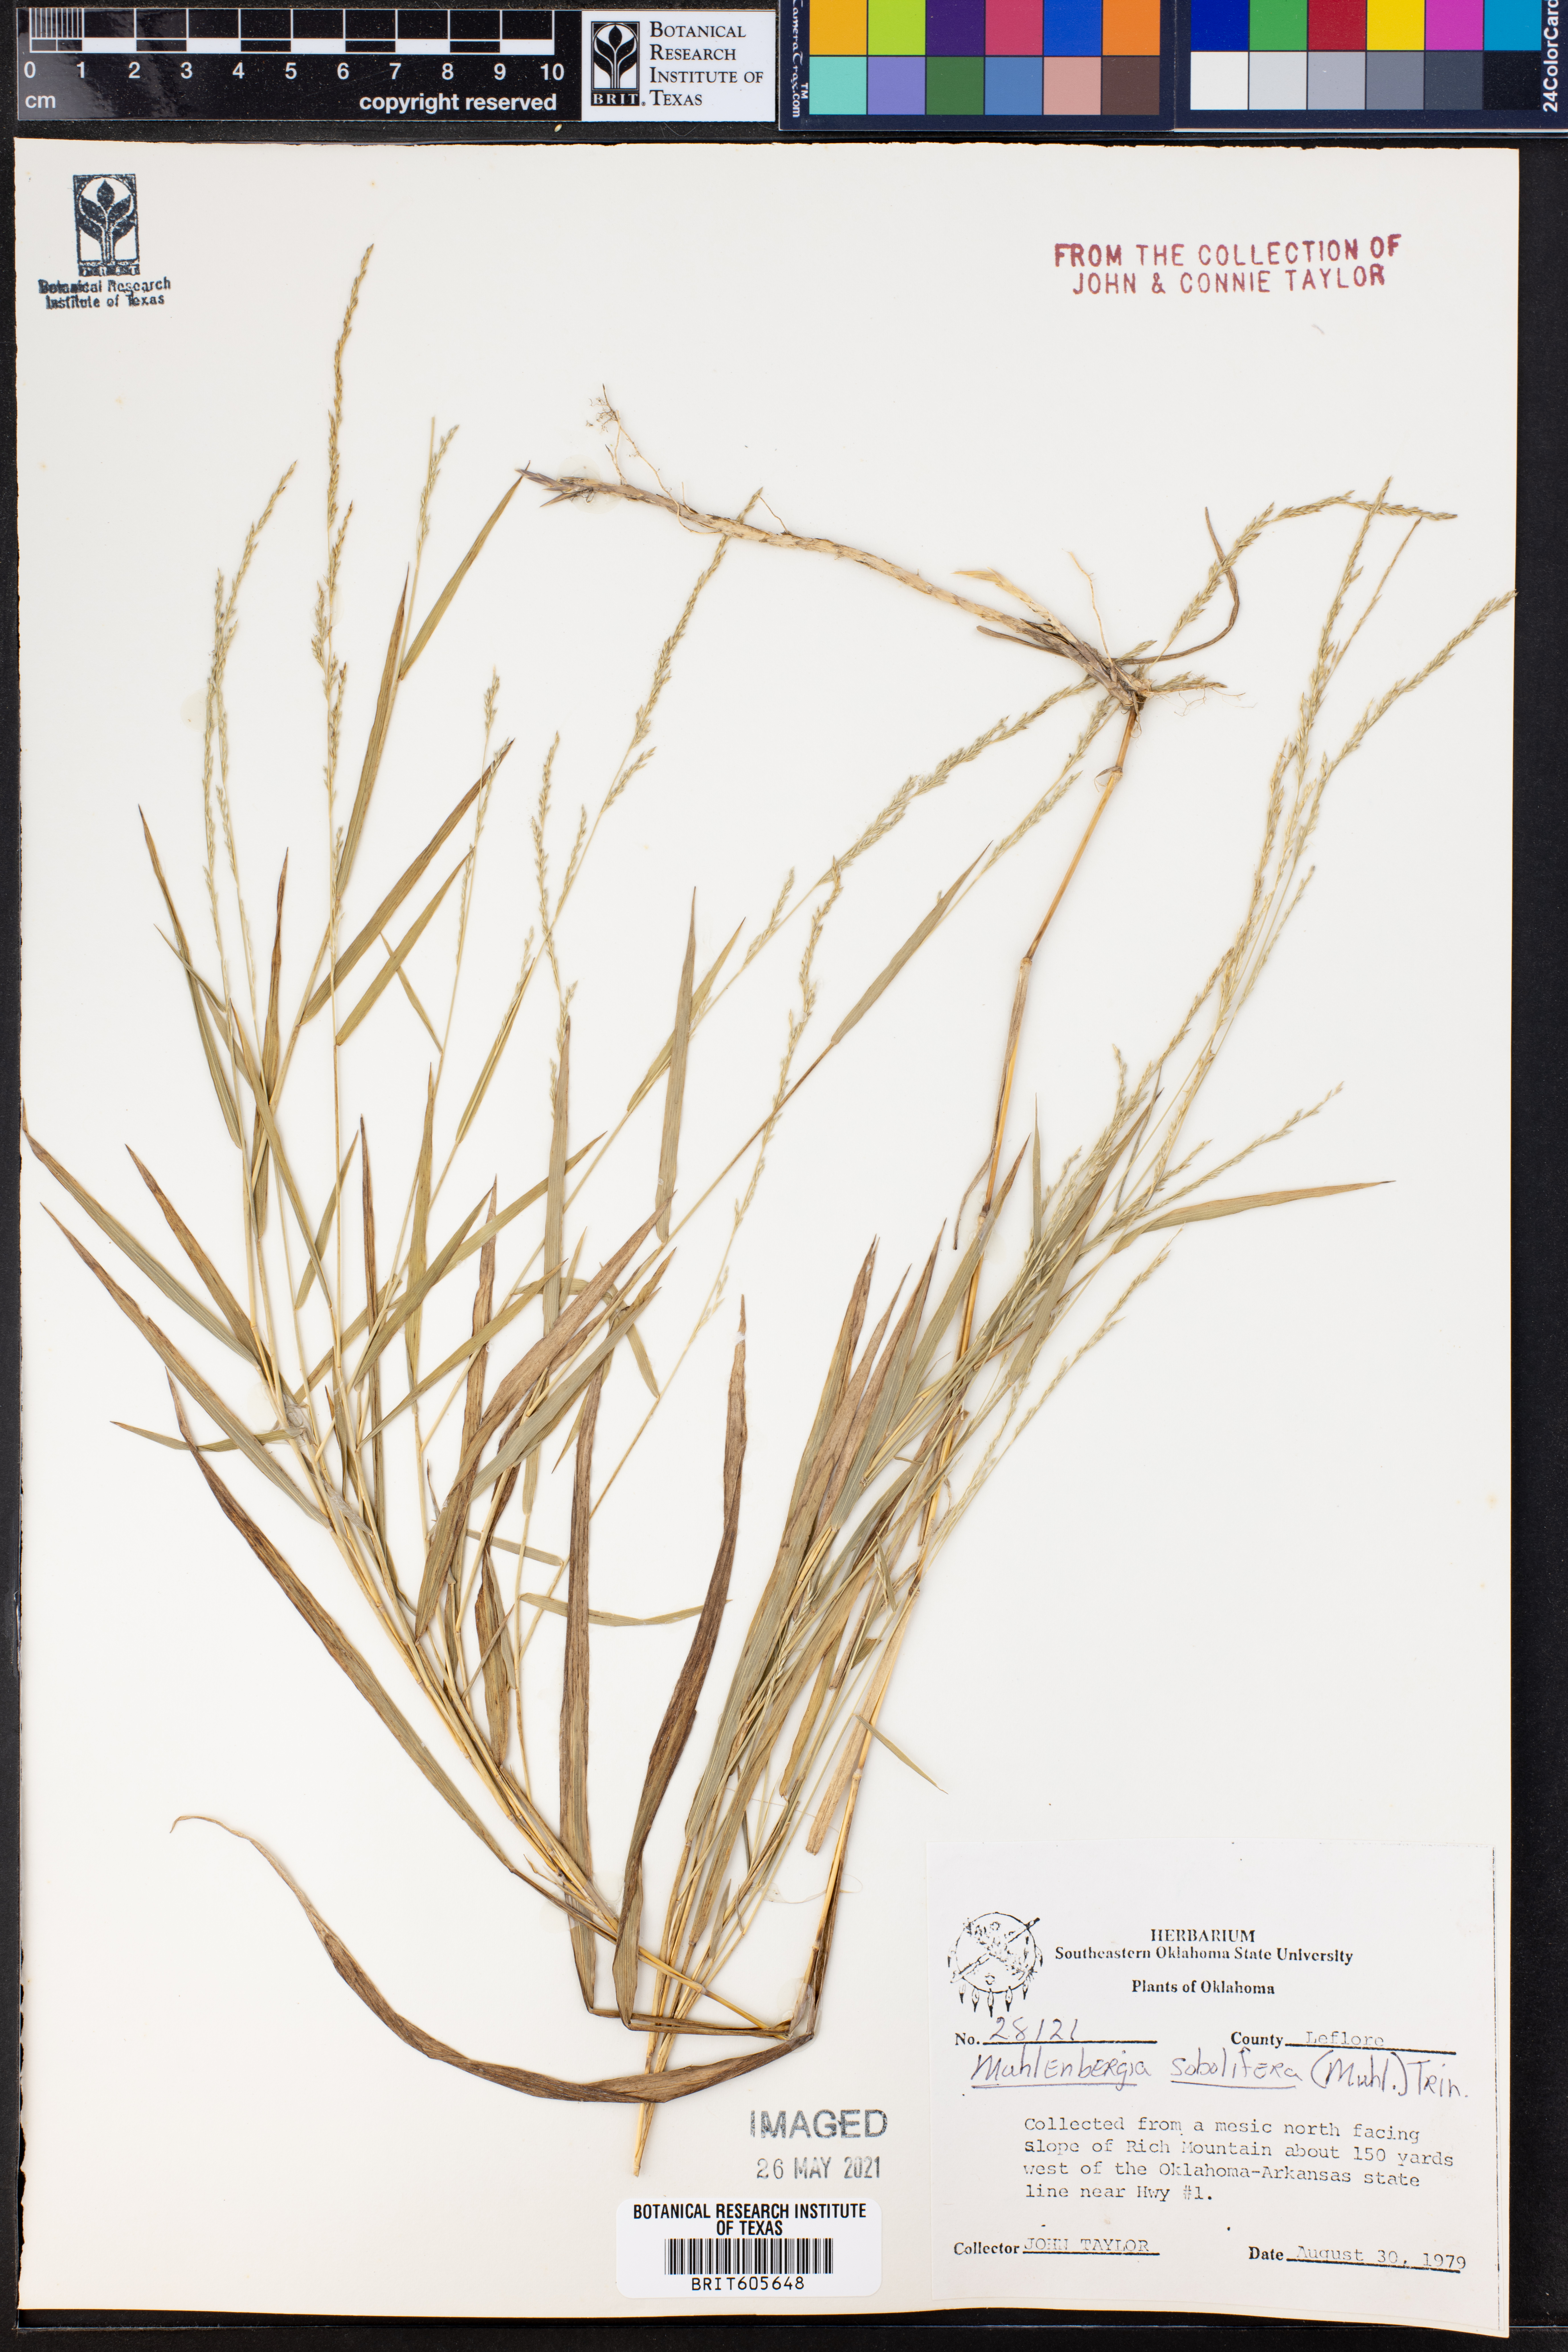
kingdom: Plantae
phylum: Tracheophyta
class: Liliopsida
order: Poales
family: Poaceae
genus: Muhlenbergia
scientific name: Muhlenbergia sobolifera
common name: Creeping muhly
